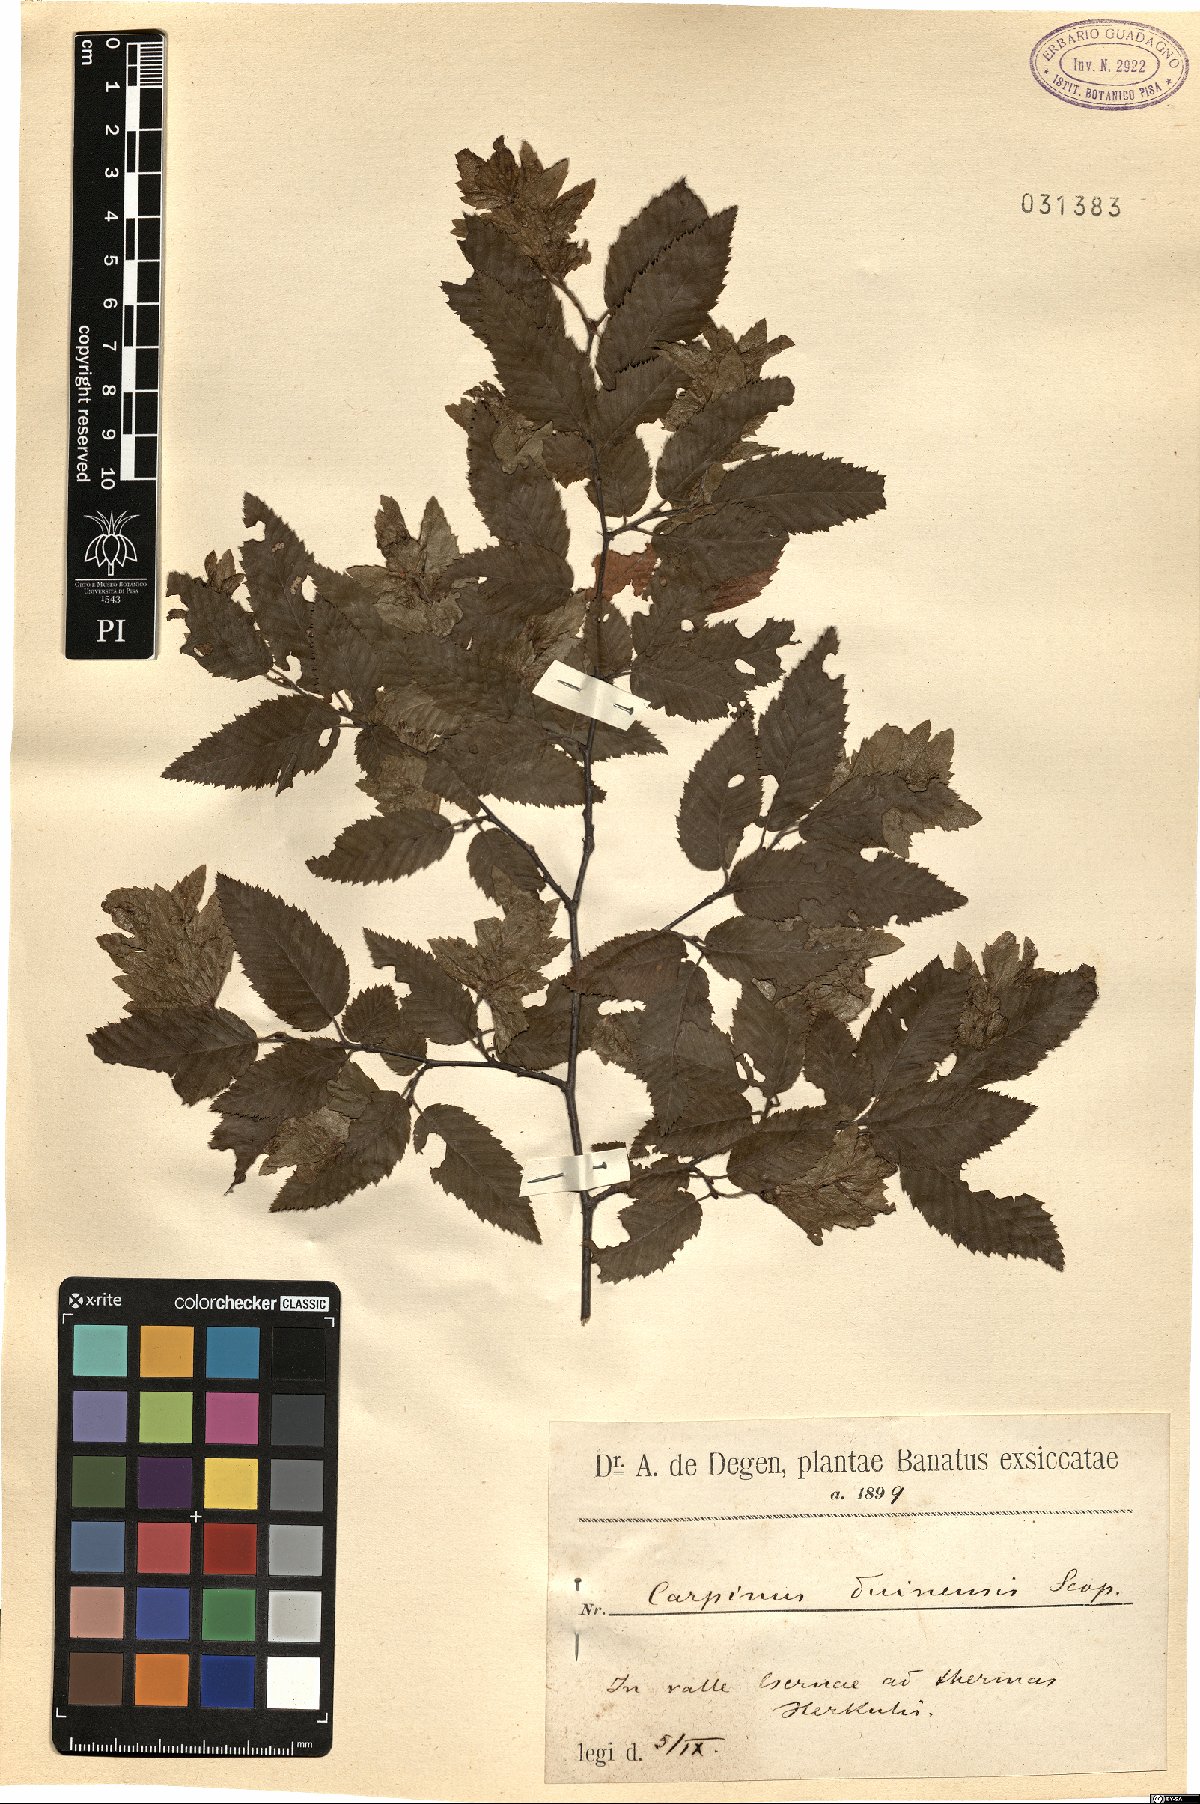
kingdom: Plantae
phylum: Tracheophyta
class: Magnoliopsida
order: Fagales
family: Betulaceae
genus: Carpinus
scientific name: Carpinus orientalis
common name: Eastern hornbeam
